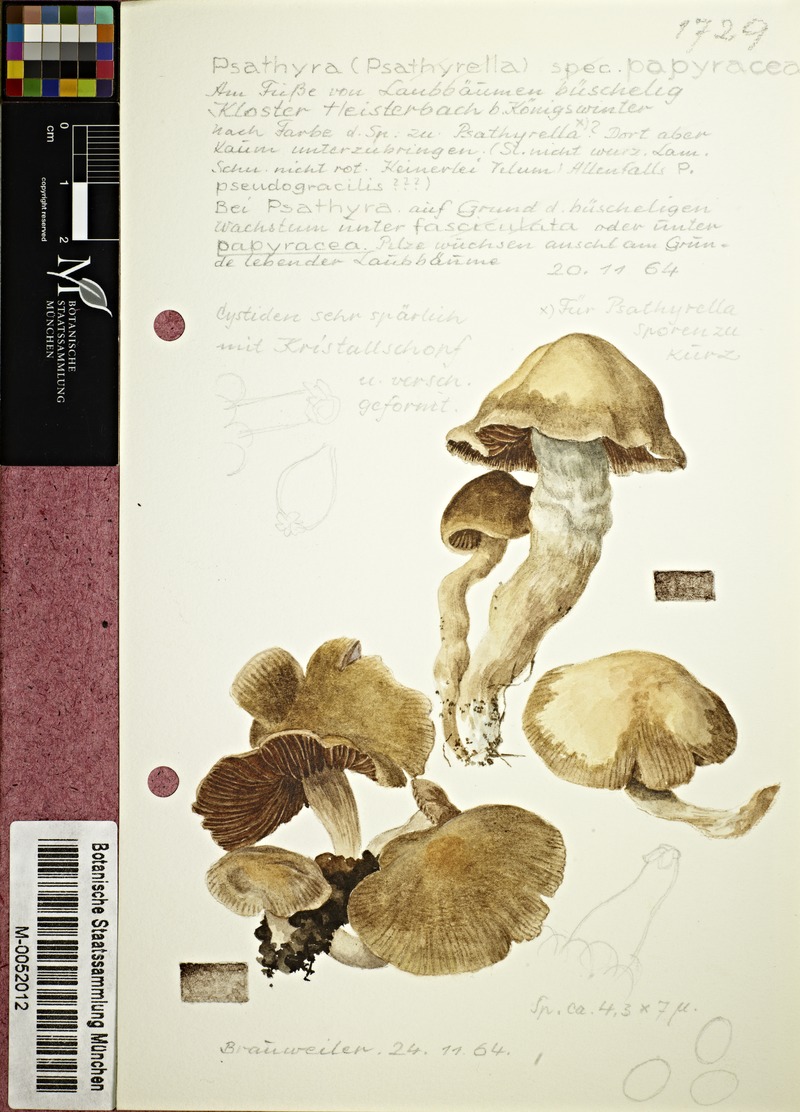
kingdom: Fungi
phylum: Basidiomycota
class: Agaricomycetes
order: Agaricales
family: Psathyrellaceae
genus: Homophron
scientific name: Homophron cernuum
